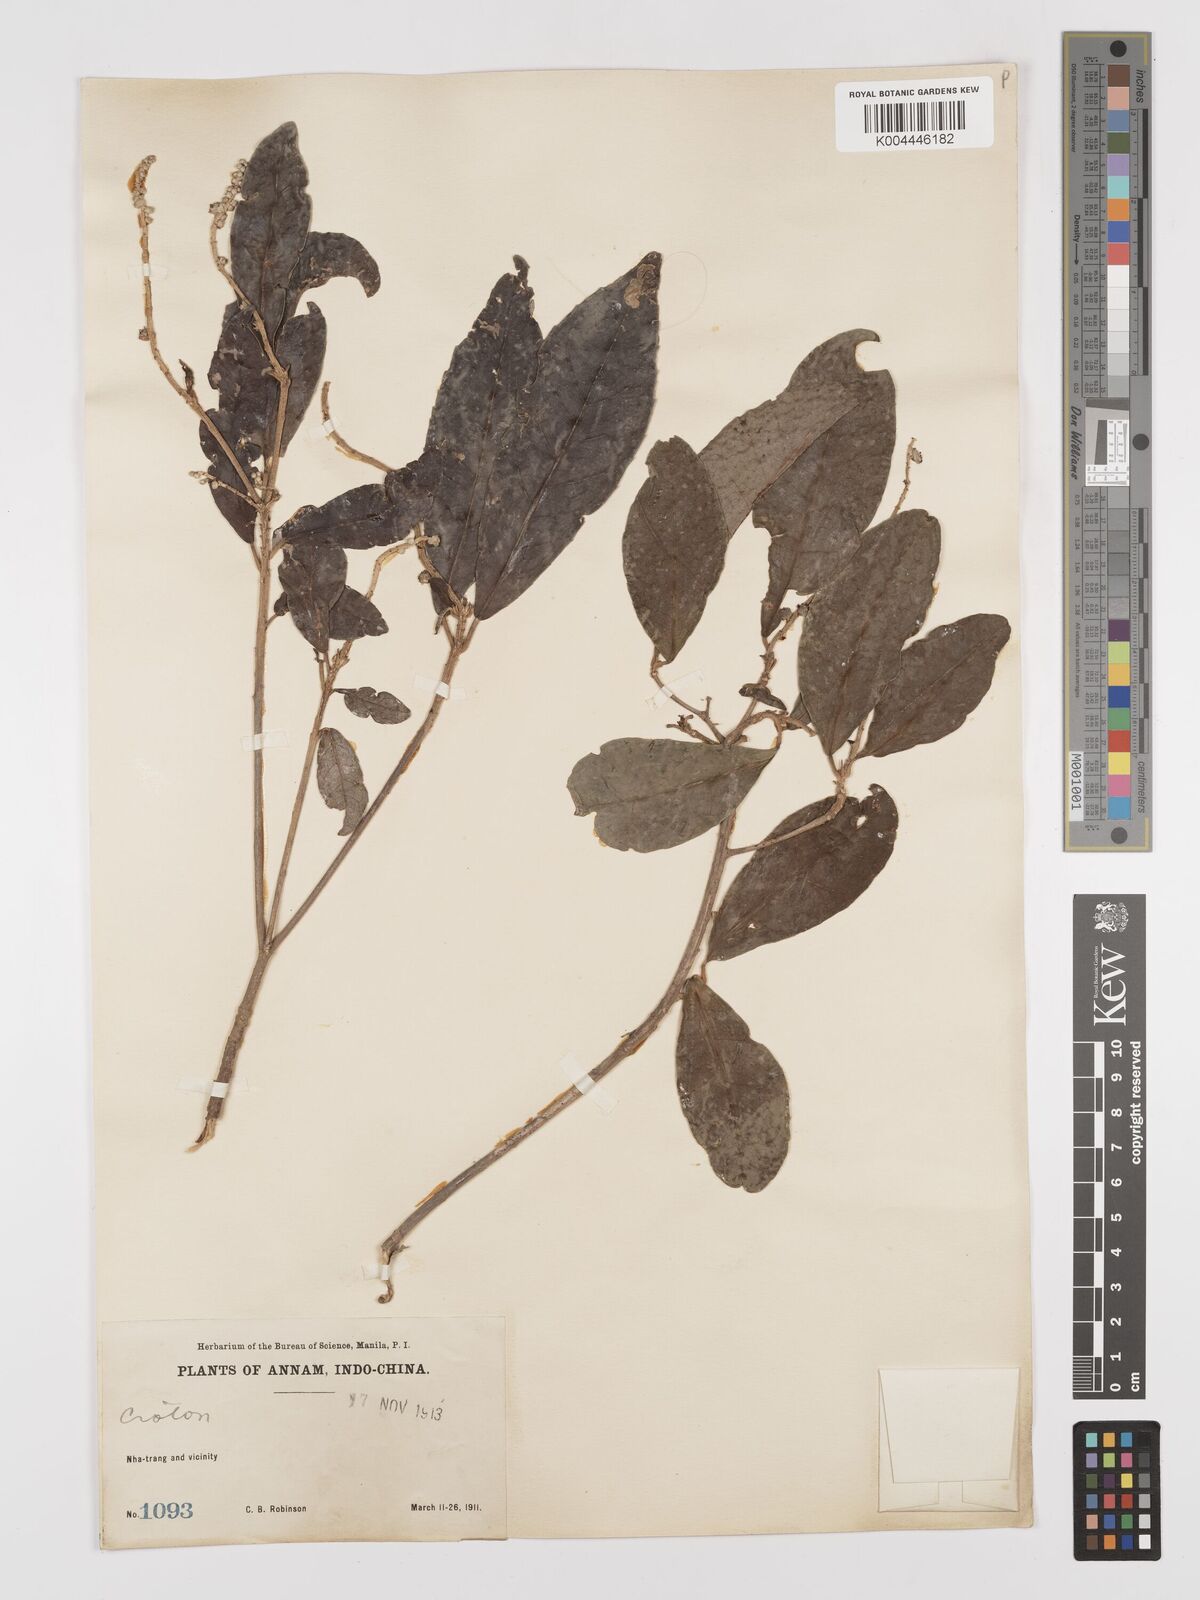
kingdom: Plantae
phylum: Tracheophyta
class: Magnoliopsida
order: Malpighiales
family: Euphorbiaceae
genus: Croton
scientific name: Croton delpyi
